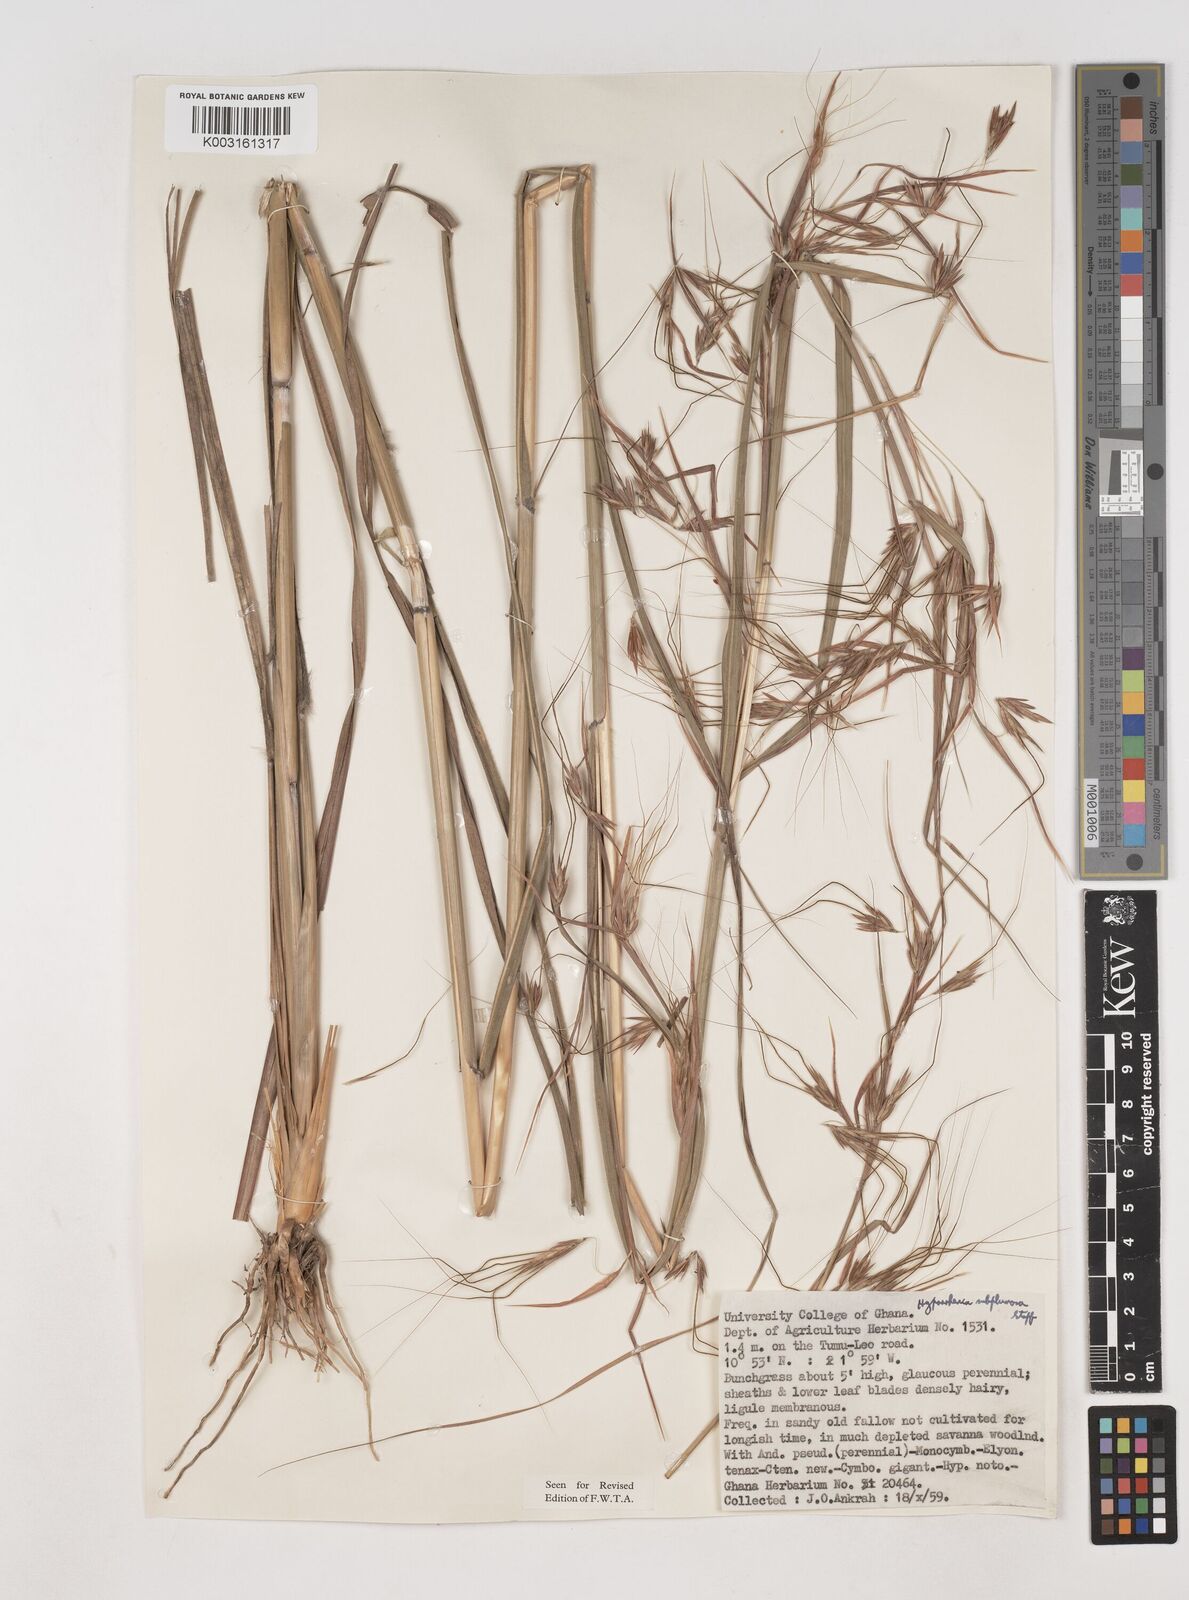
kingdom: Plantae
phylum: Tracheophyta
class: Liliopsida
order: Poales
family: Poaceae
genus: Hyparrhenia
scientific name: Hyparrhenia subplumosa
